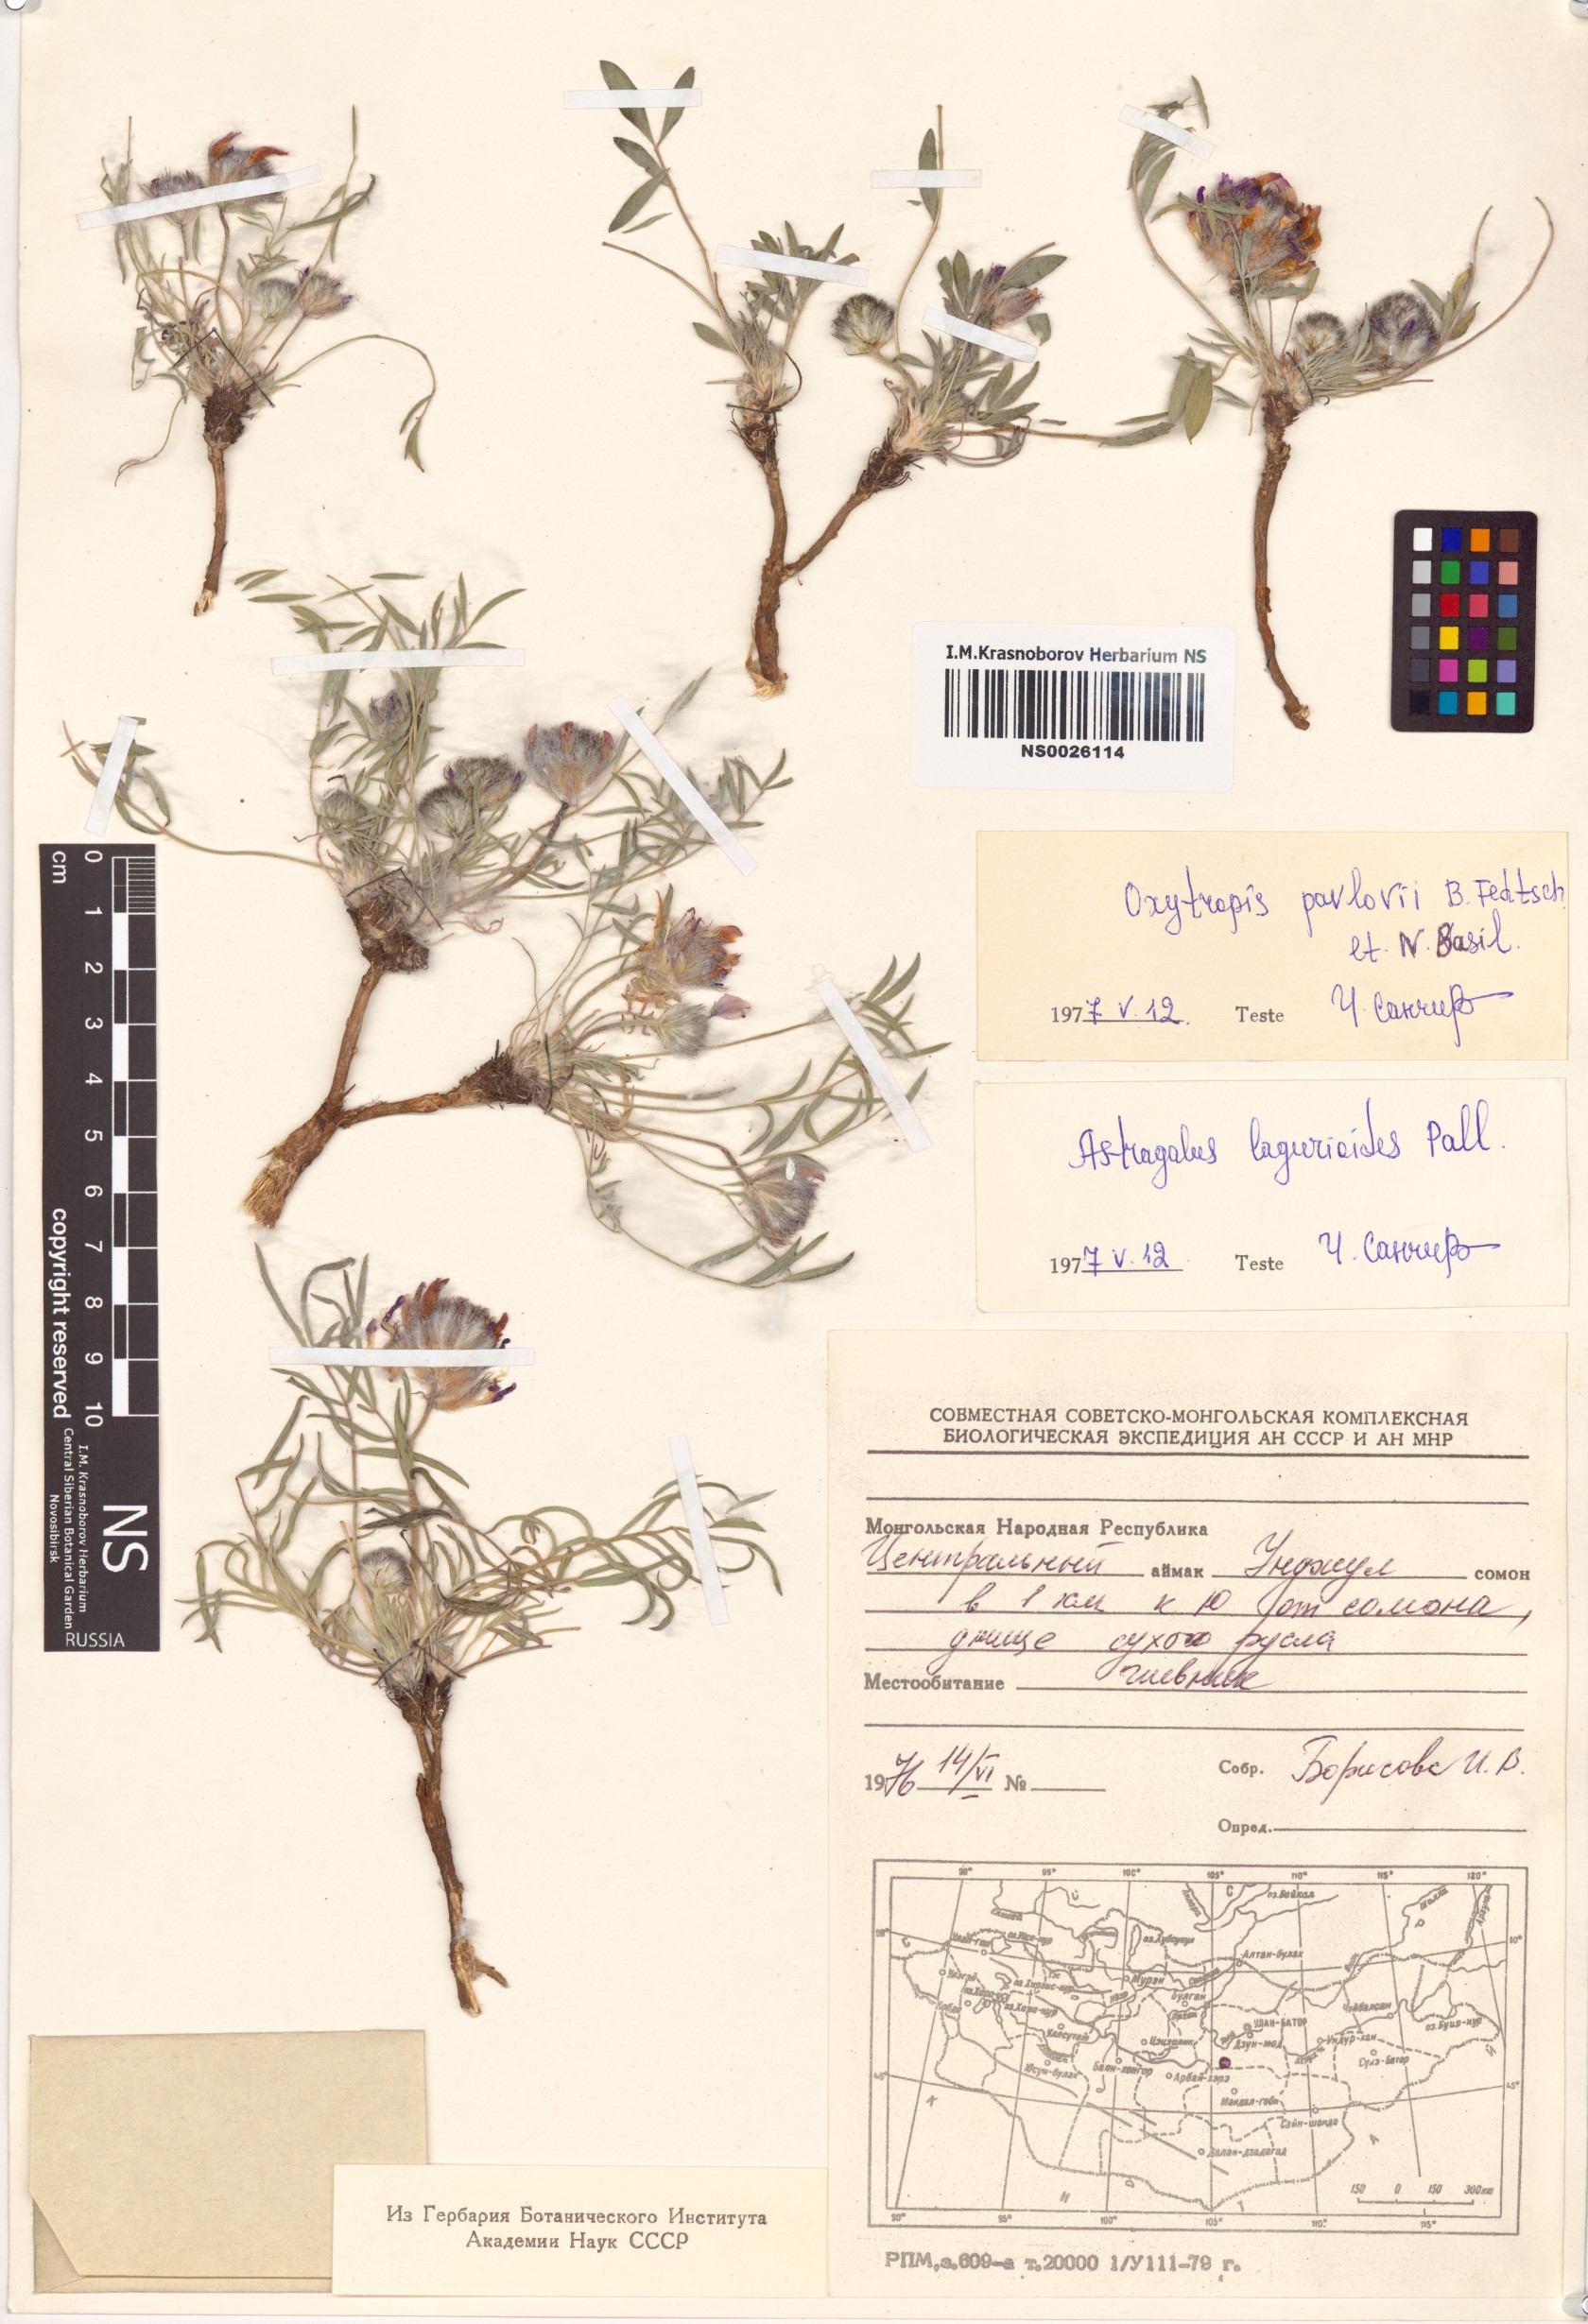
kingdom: Plantae
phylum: Tracheophyta
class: Magnoliopsida
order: Fabales
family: Fabaceae
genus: Oxytropis
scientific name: Oxytropis pavlovii
